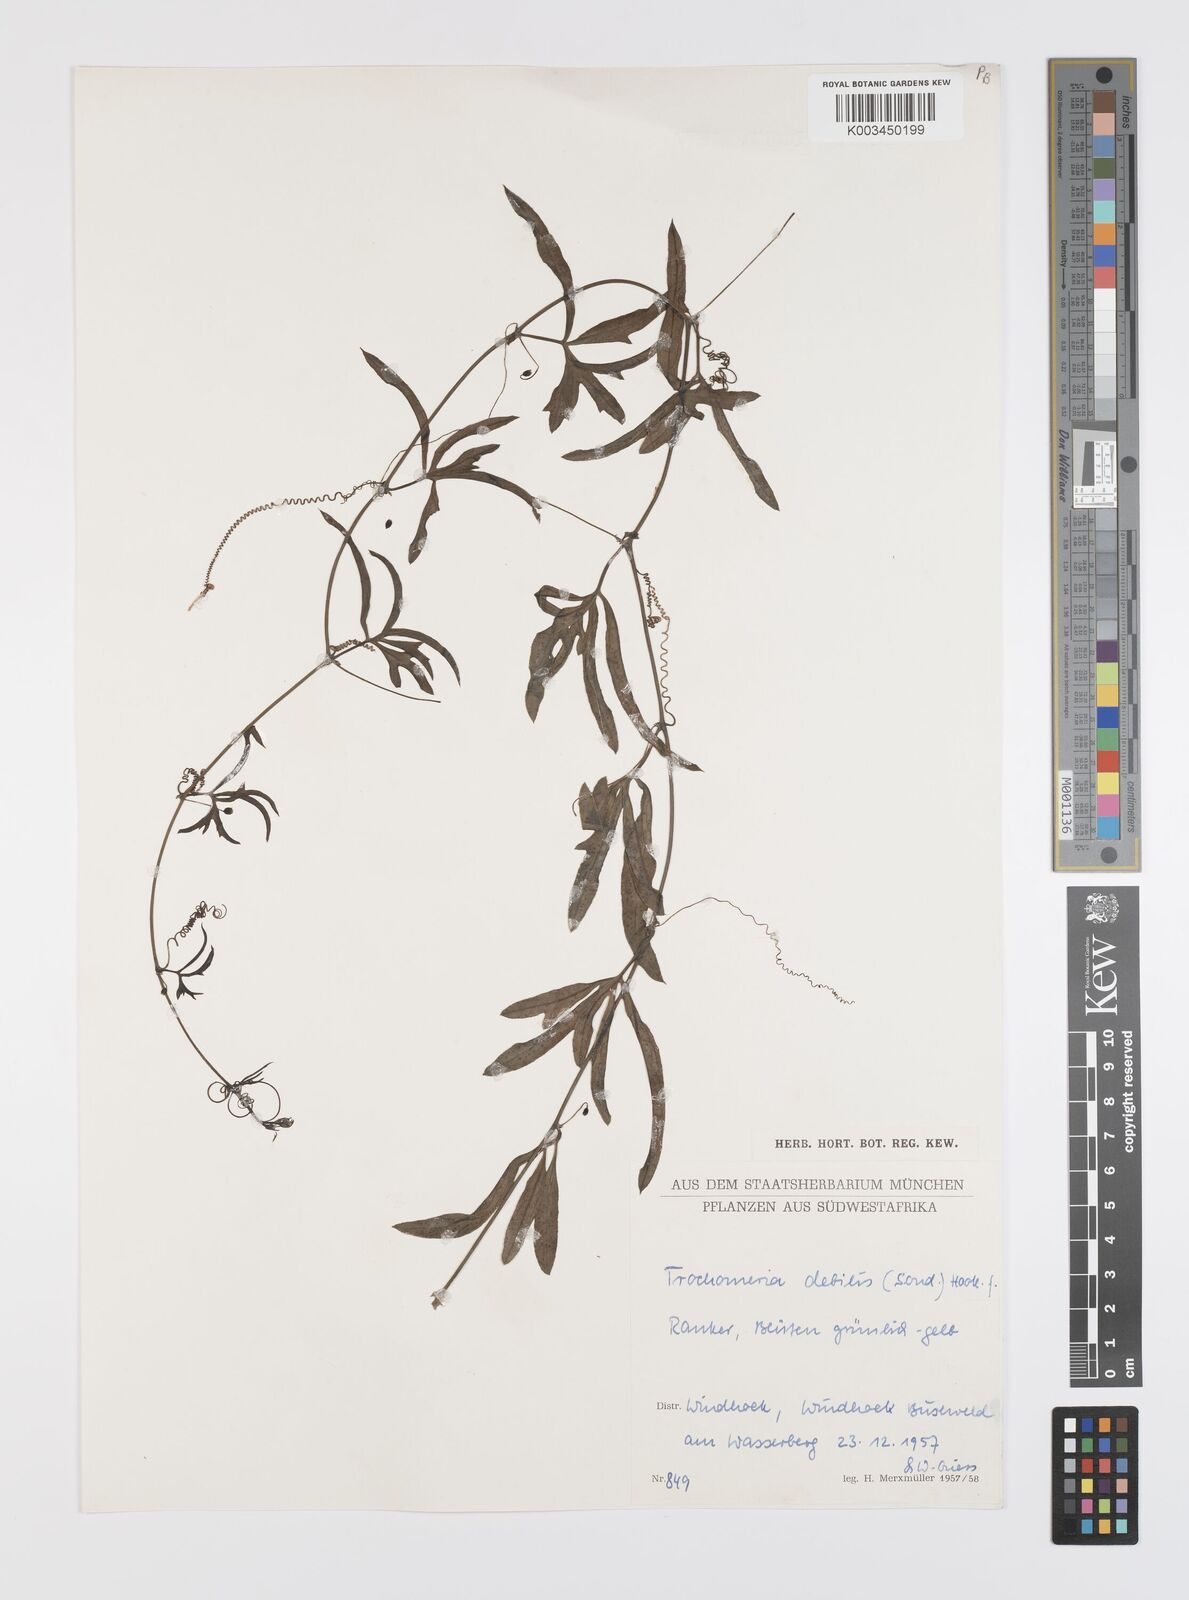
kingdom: Plantae
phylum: Tracheophyta
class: Magnoliopsida
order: Cucurbitales
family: Cucurbitaceae
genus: Trochomeria
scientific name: Trochomeria debilis
